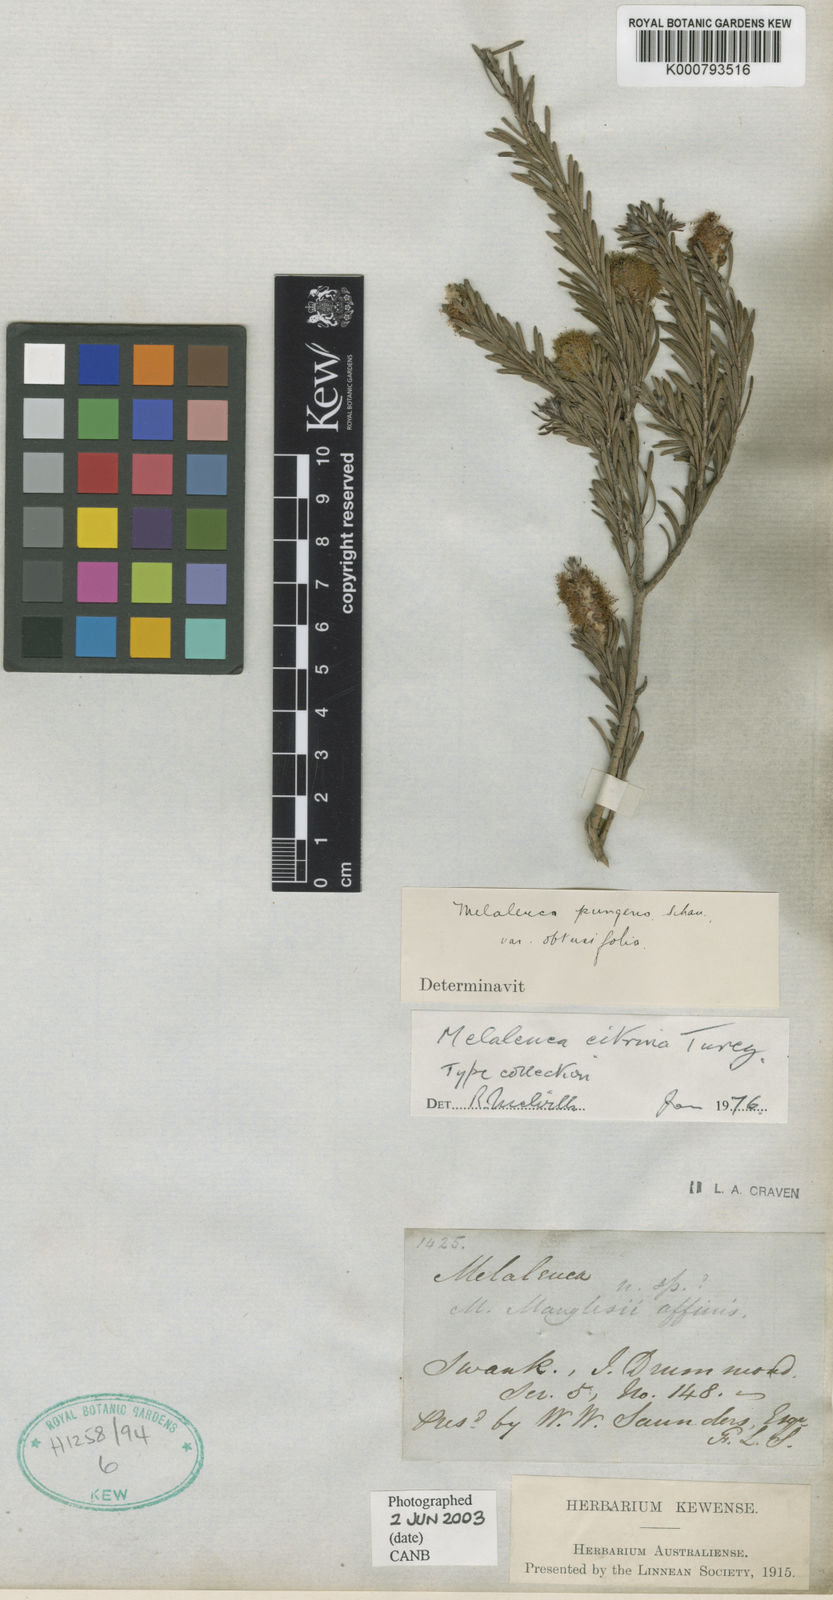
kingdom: Plantae
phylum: Tracheophyta
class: Magnoliopsida
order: Myrtales
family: Myrtaceae
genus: Melaleuca
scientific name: Melaleuca lutea
